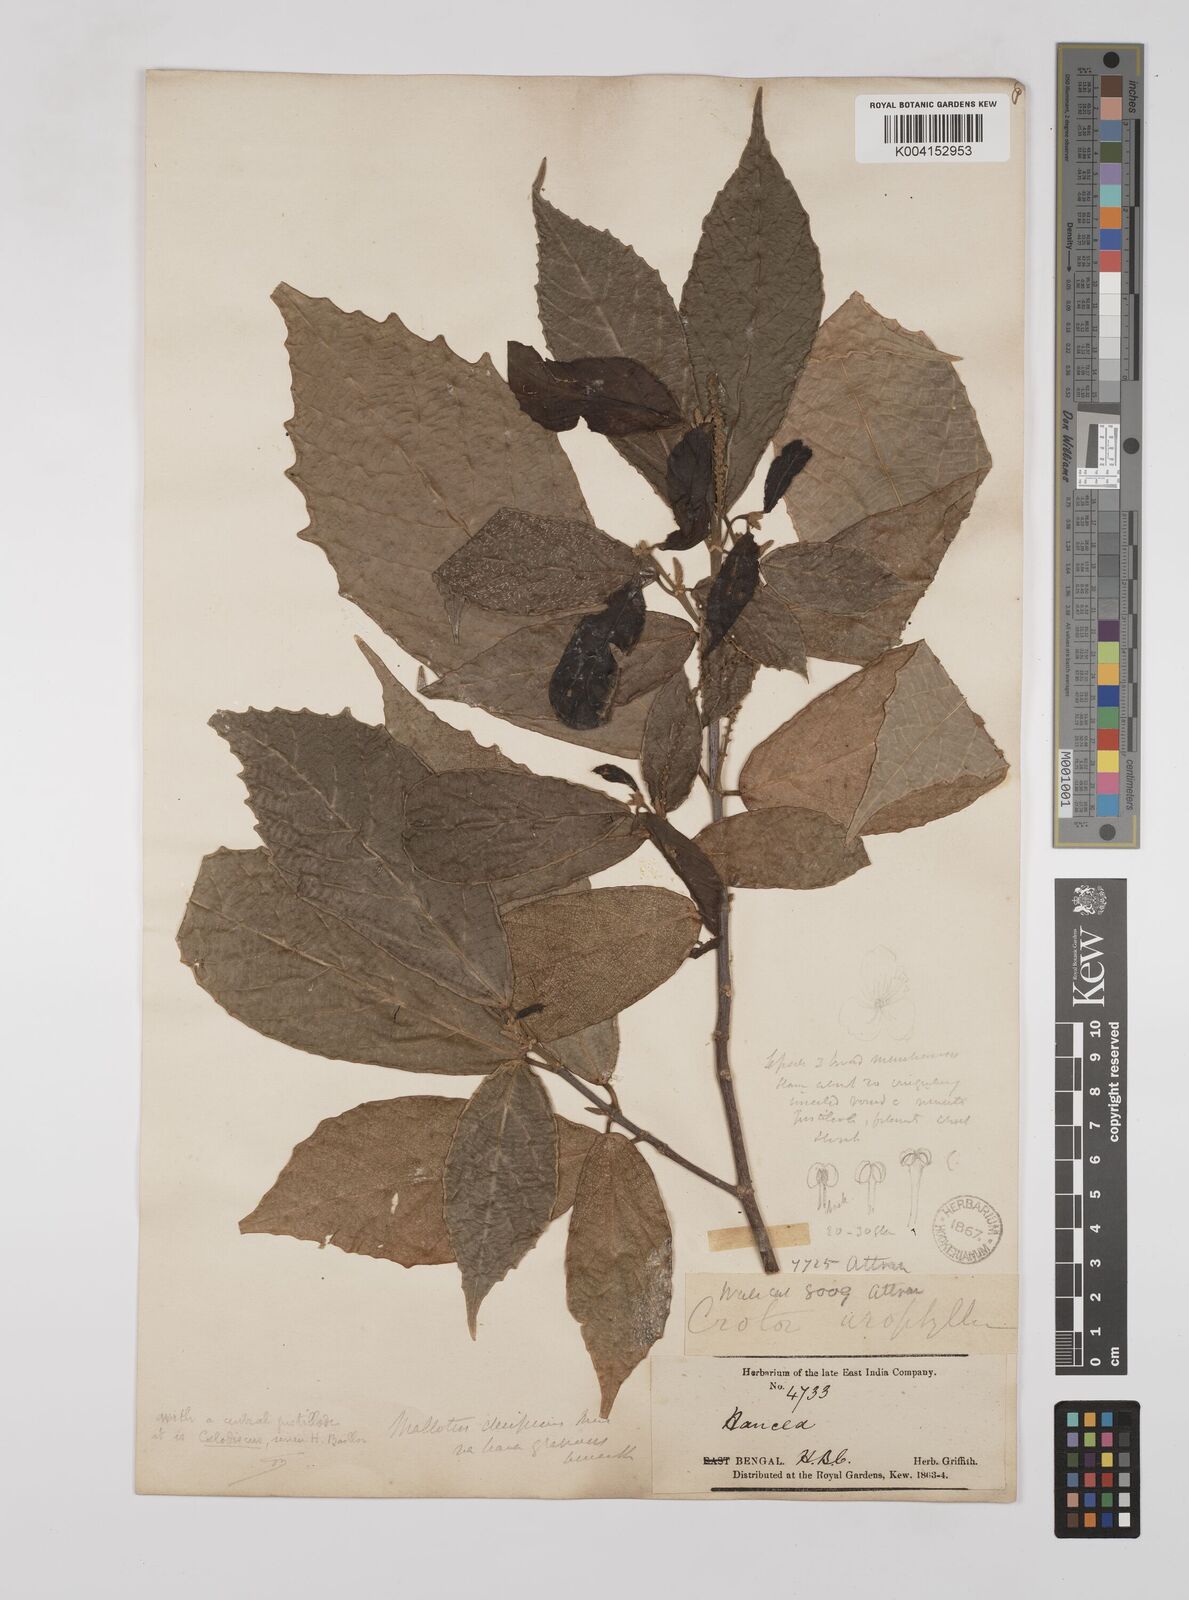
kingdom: Plantae
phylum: Tracheophyta
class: Magnoliopsida
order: Malpighiales
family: Euphorbiaceae
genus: Mallotus
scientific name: Mallotus decipiens
